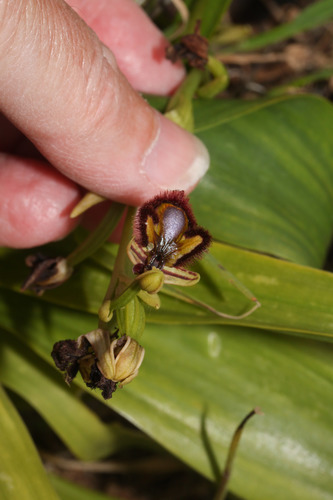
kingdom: Plantae
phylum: Tracheophyta
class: Liliopsida
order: Asparagales
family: Orchidaceae
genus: Ophrys
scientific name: Ophrys speculum
